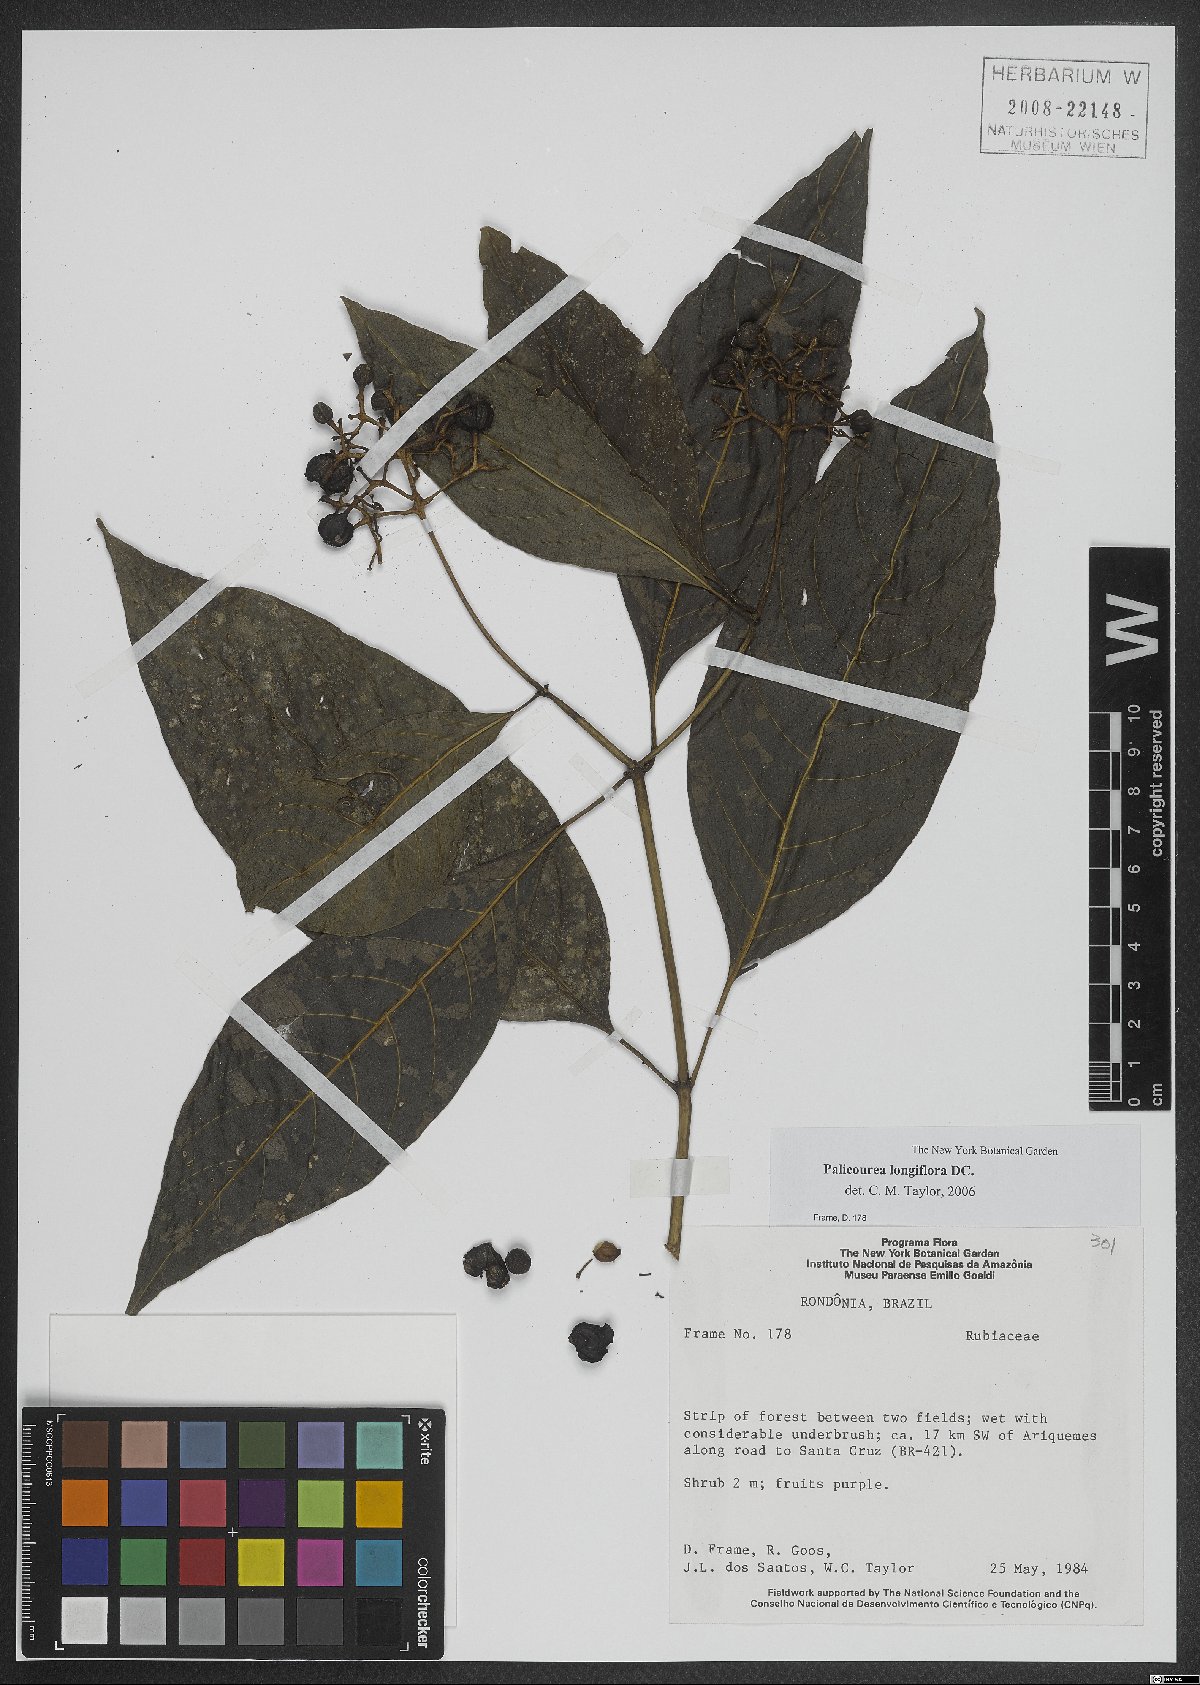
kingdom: Plantae
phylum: Tracheophyta
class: Magnoliopsida
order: Gentianales
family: Rubiaceae
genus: Palicourea
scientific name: Palicourea longiflora
